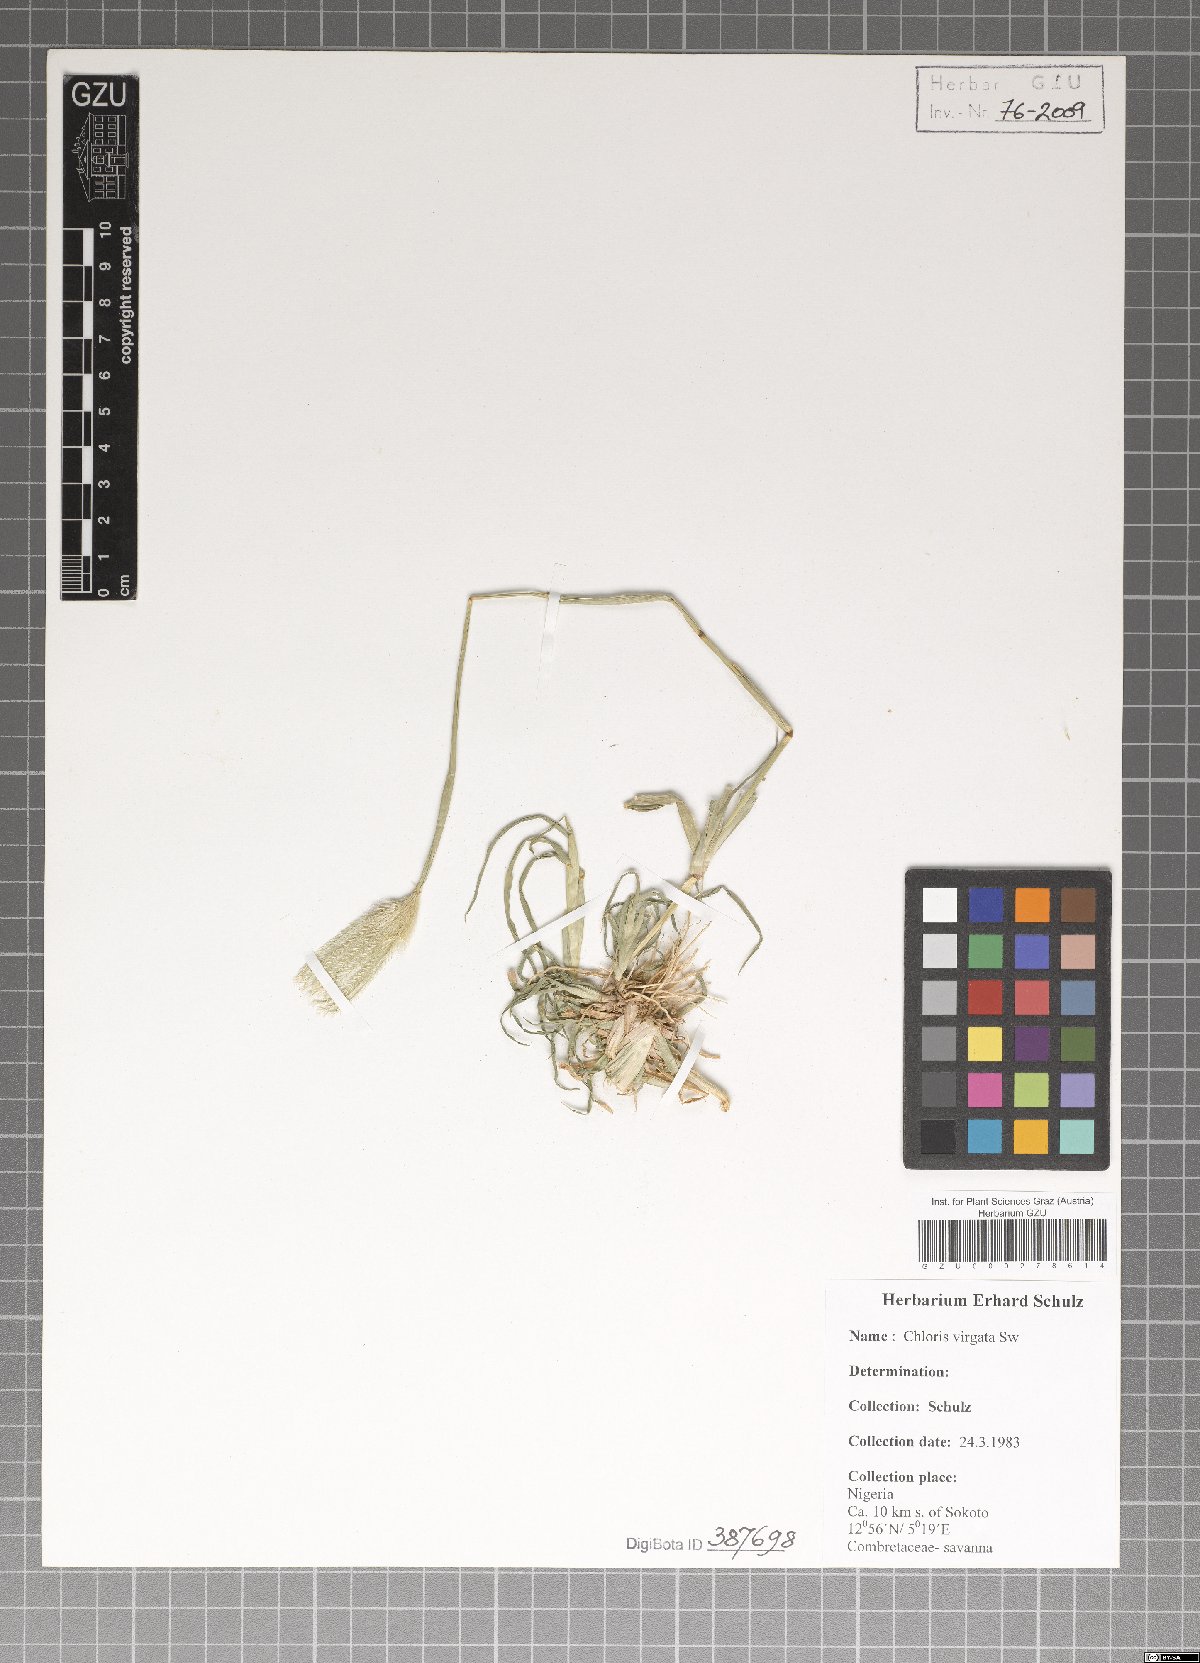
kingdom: Plantae
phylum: Tracheophyta
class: Liliopsida
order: Poales
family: Poaceae
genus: Chloris
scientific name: Chloris virgata
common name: Feathery rhodes-grass
